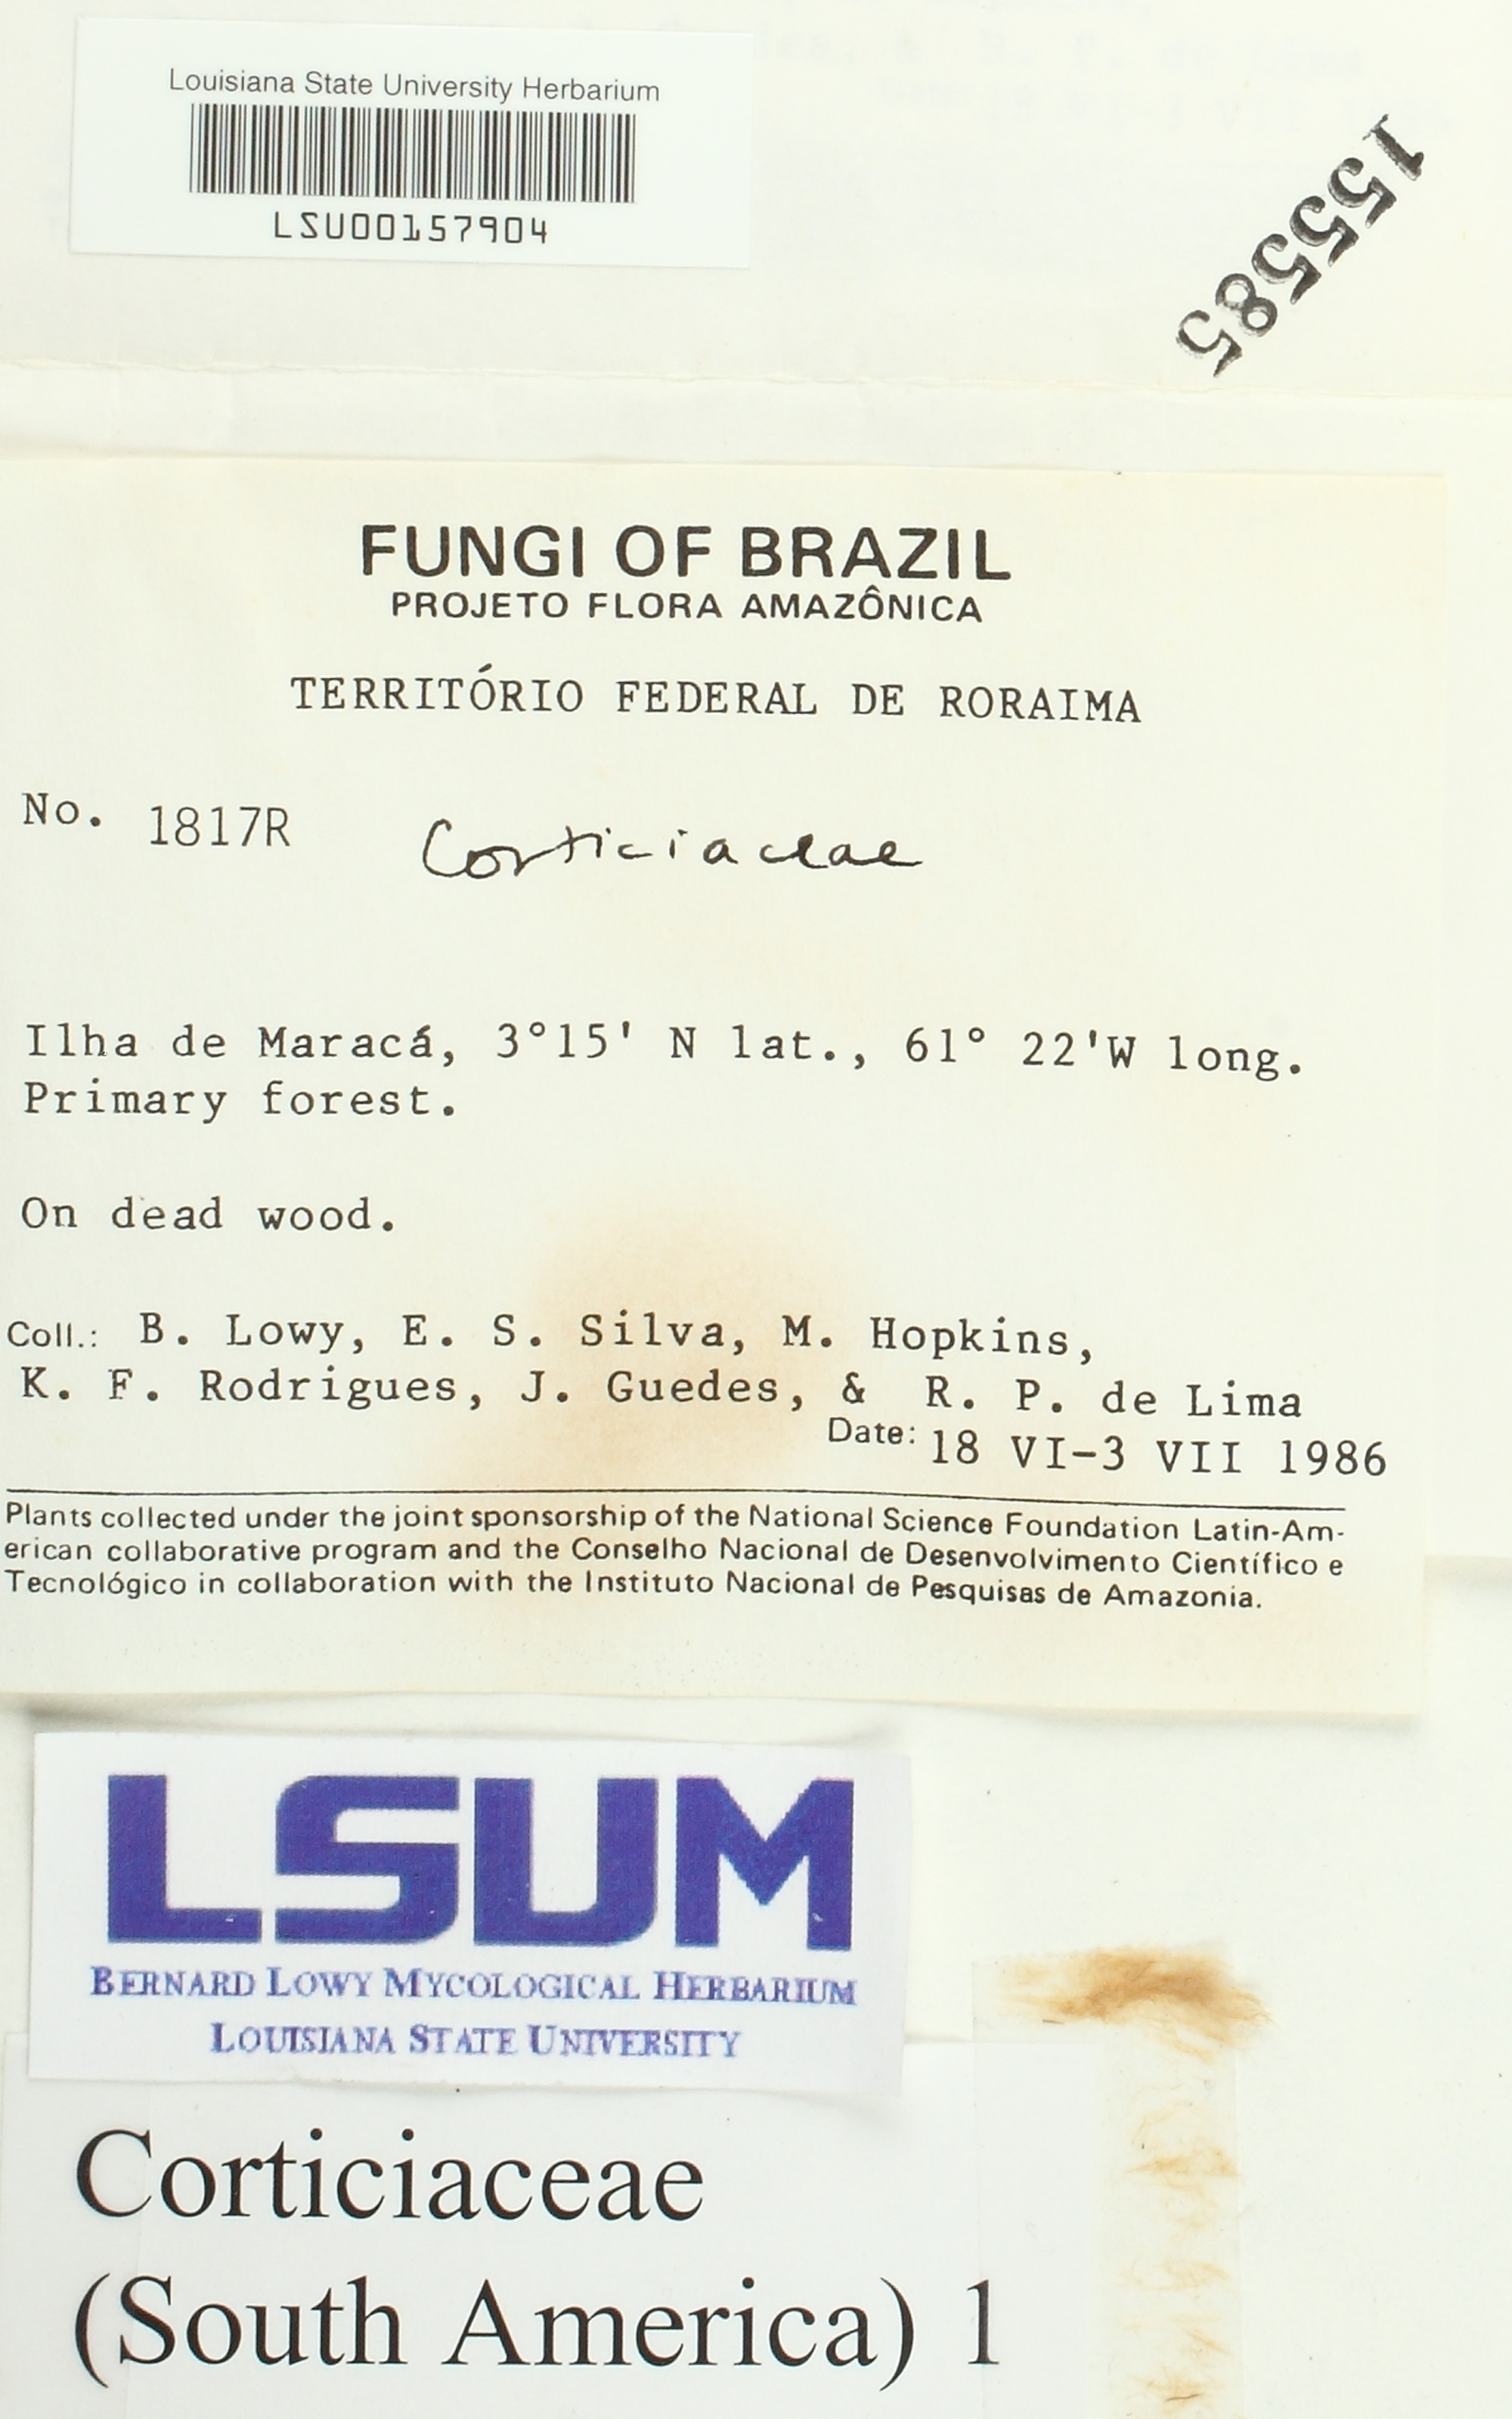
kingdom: Fungi
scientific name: Fungi
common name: Fungi
